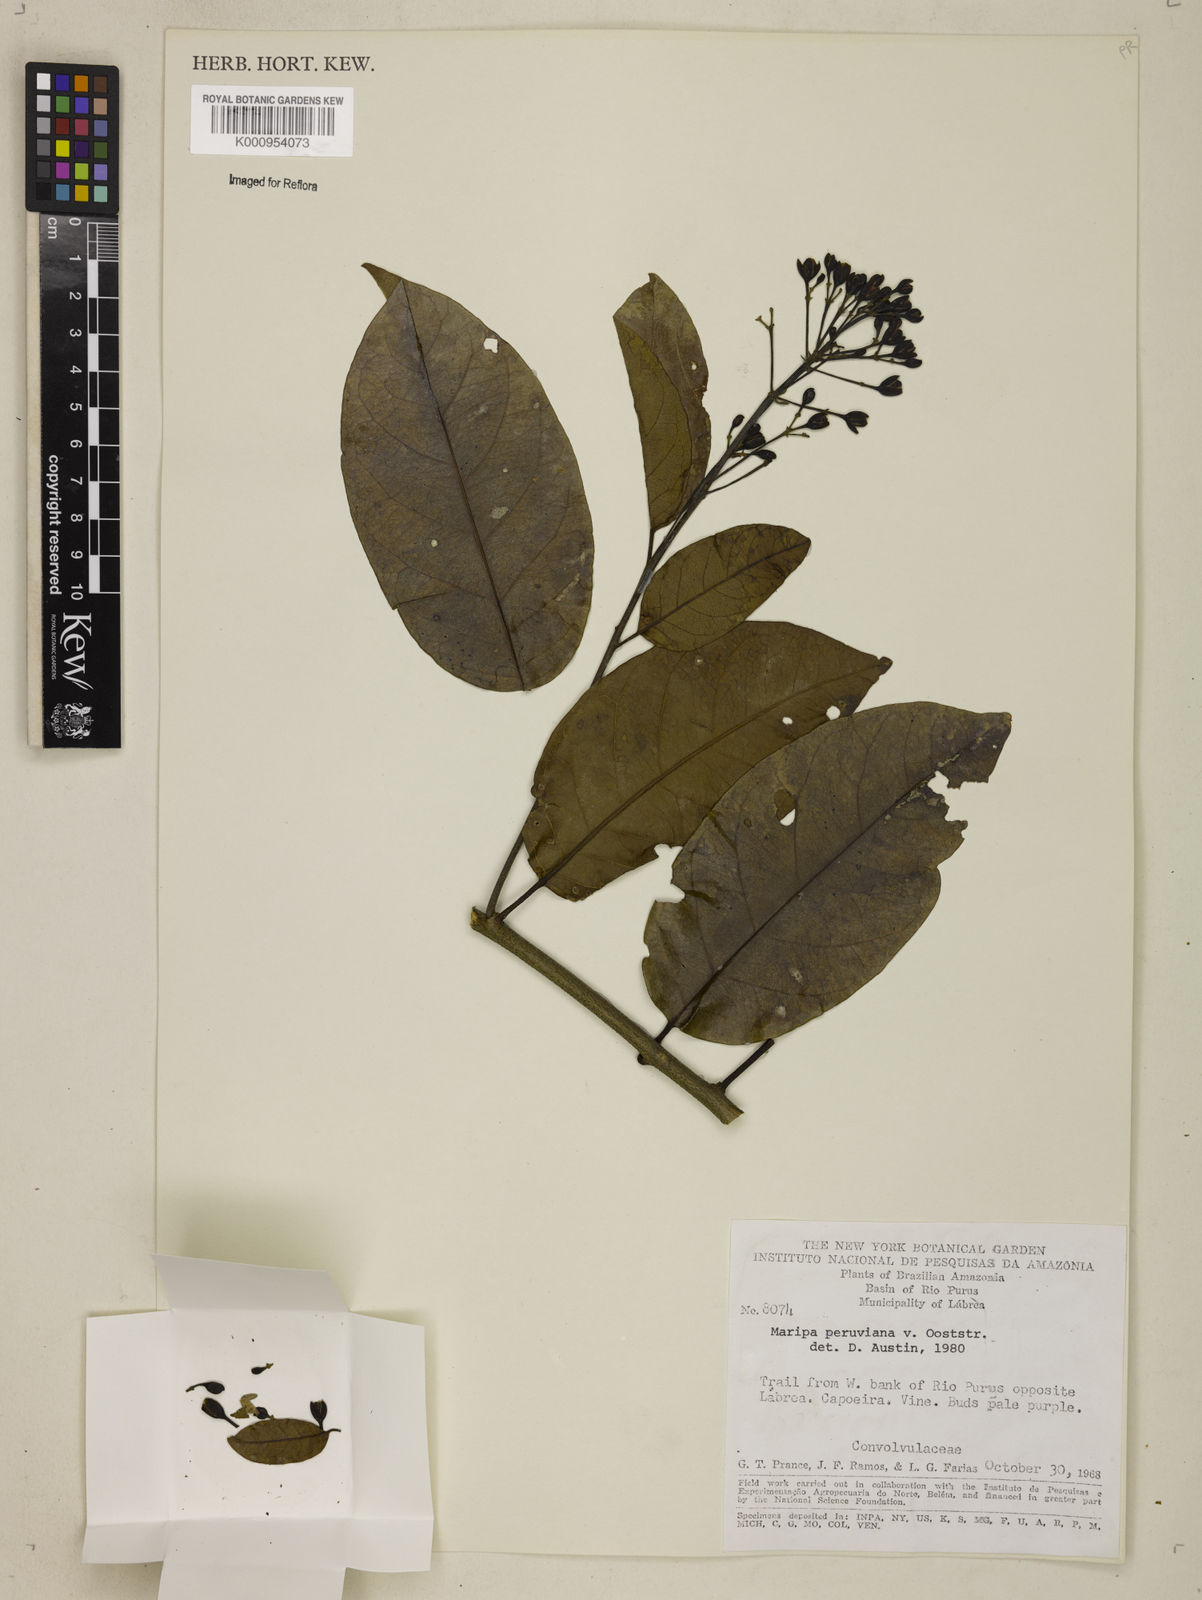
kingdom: Plantae
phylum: Tracheophyta
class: Magnoliopsida
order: Solanales
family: Convolvulaceae
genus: Maripa
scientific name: Maripa paniculata
